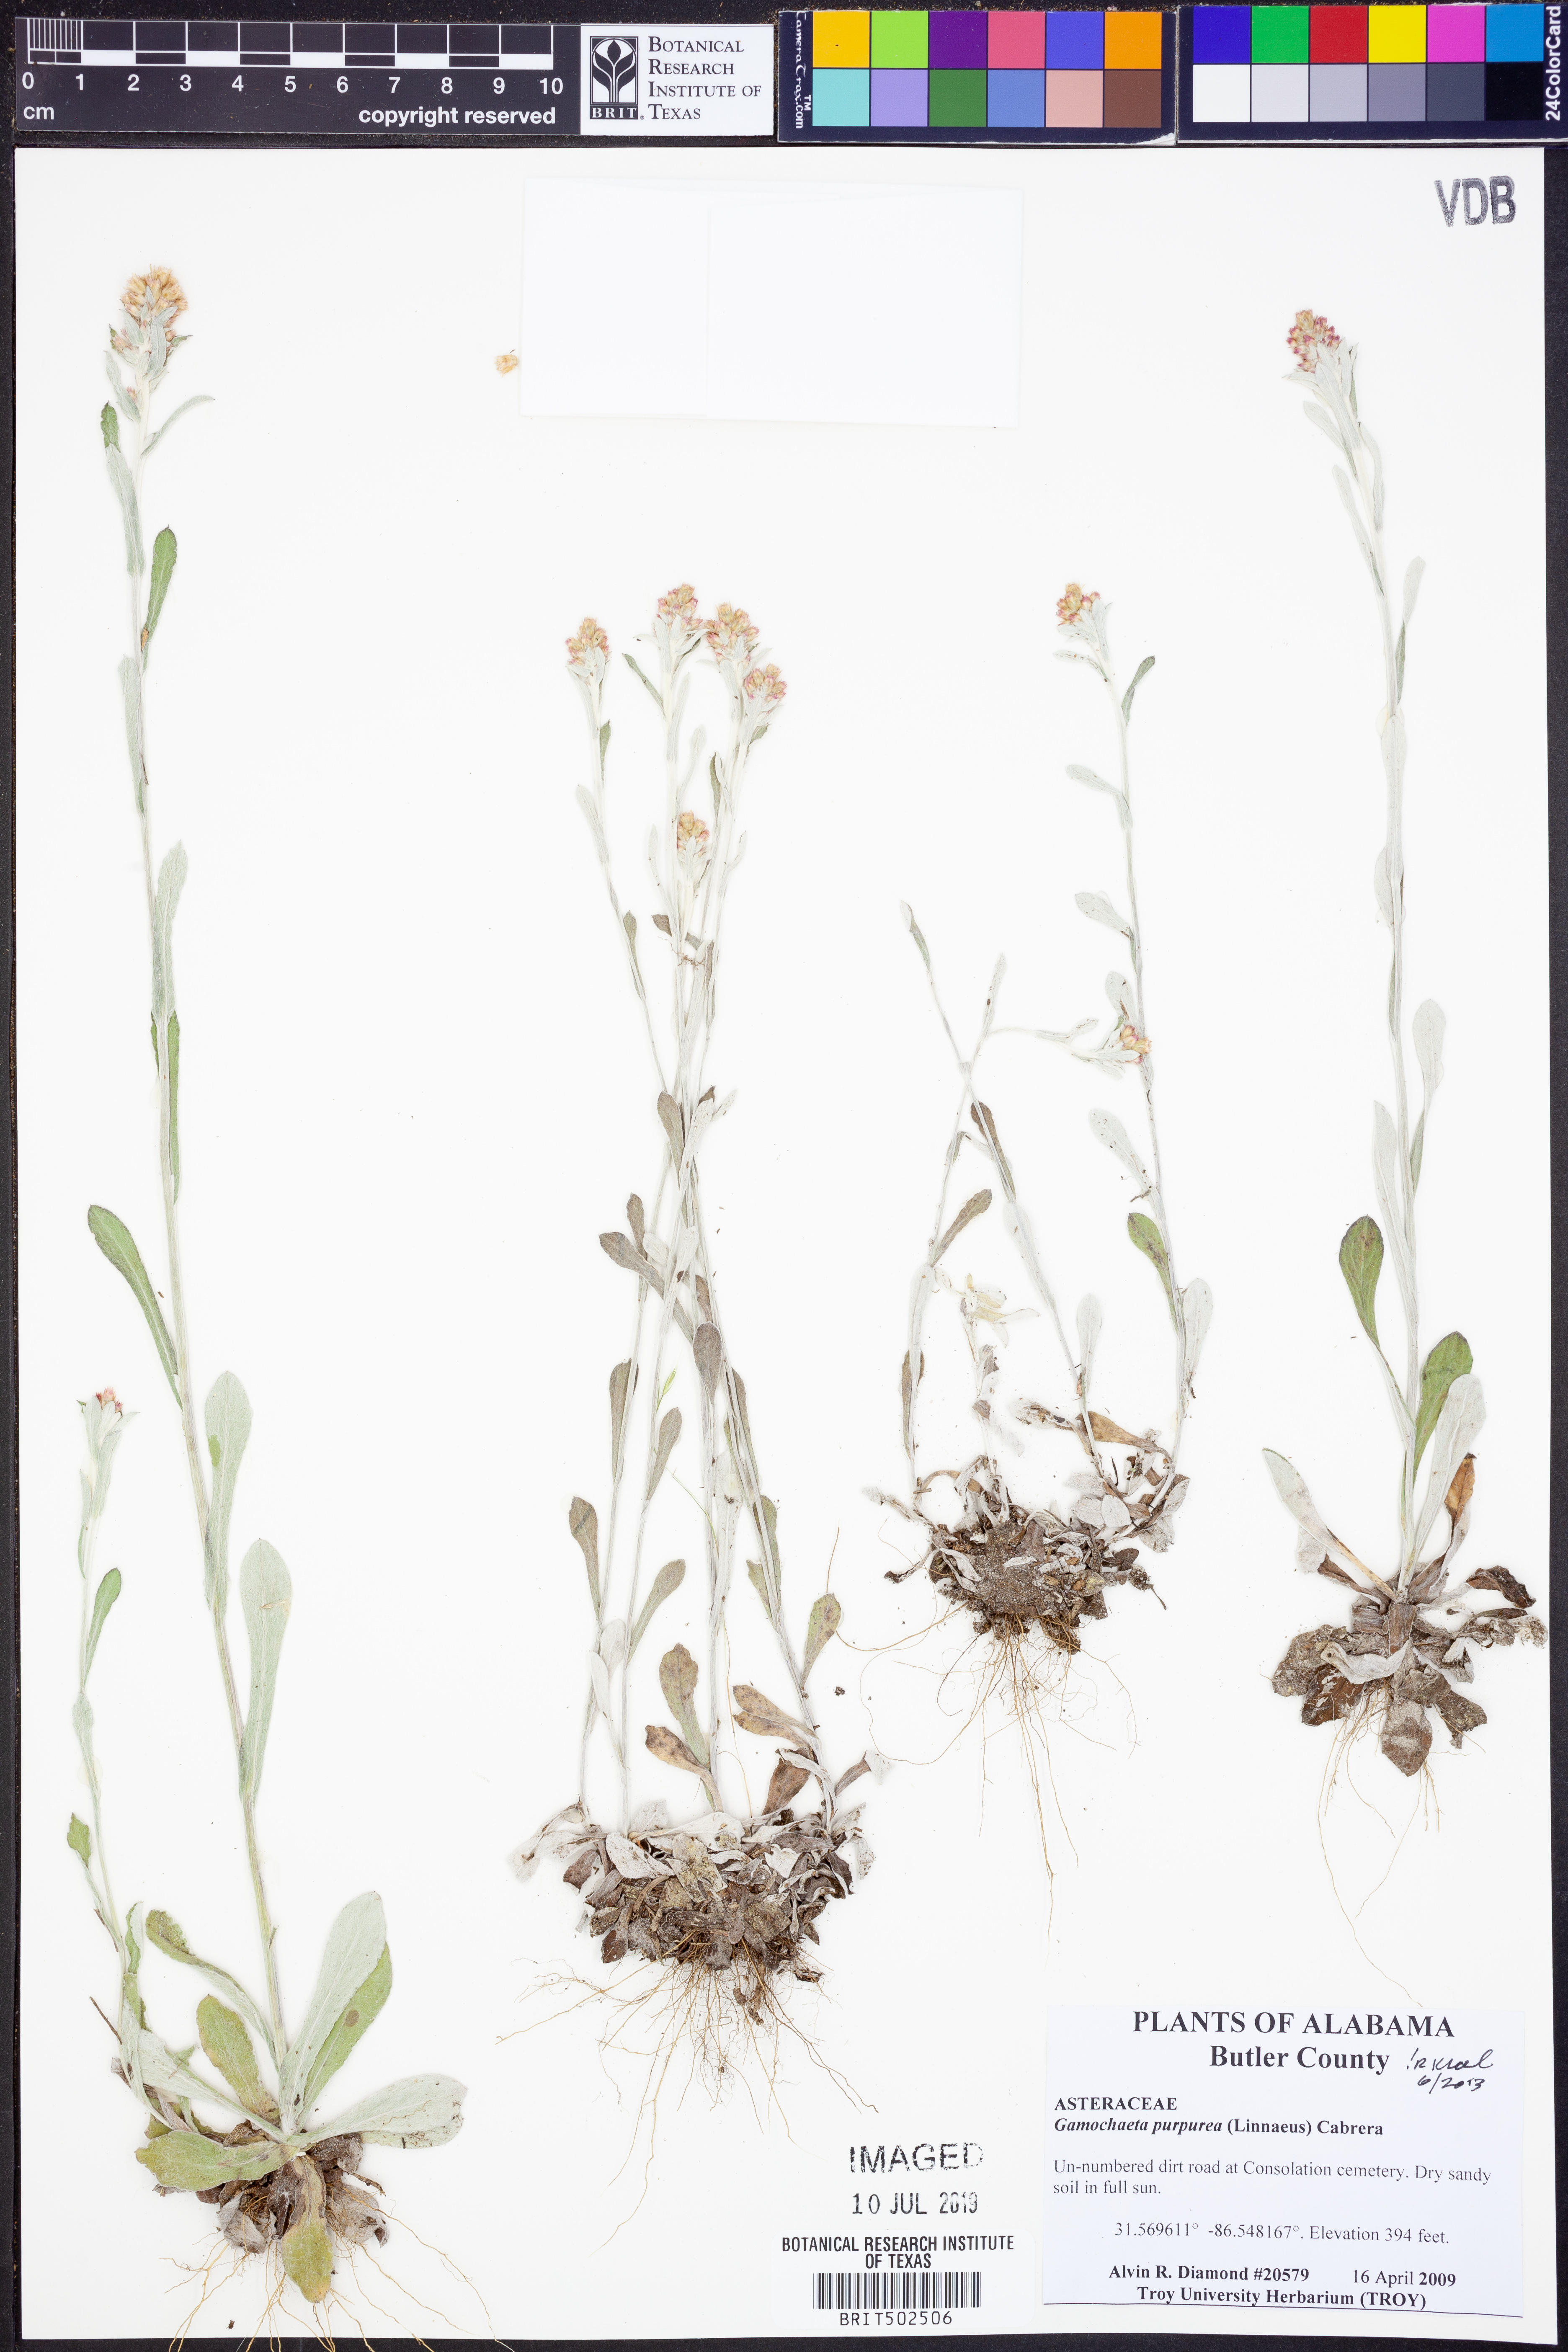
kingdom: Plantae
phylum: Tracheophyta
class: Magnoliopsida
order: Asterales
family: Asteraceae
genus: Gamochaeta
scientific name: Gamochaeta purpurea
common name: Purple cudweed
